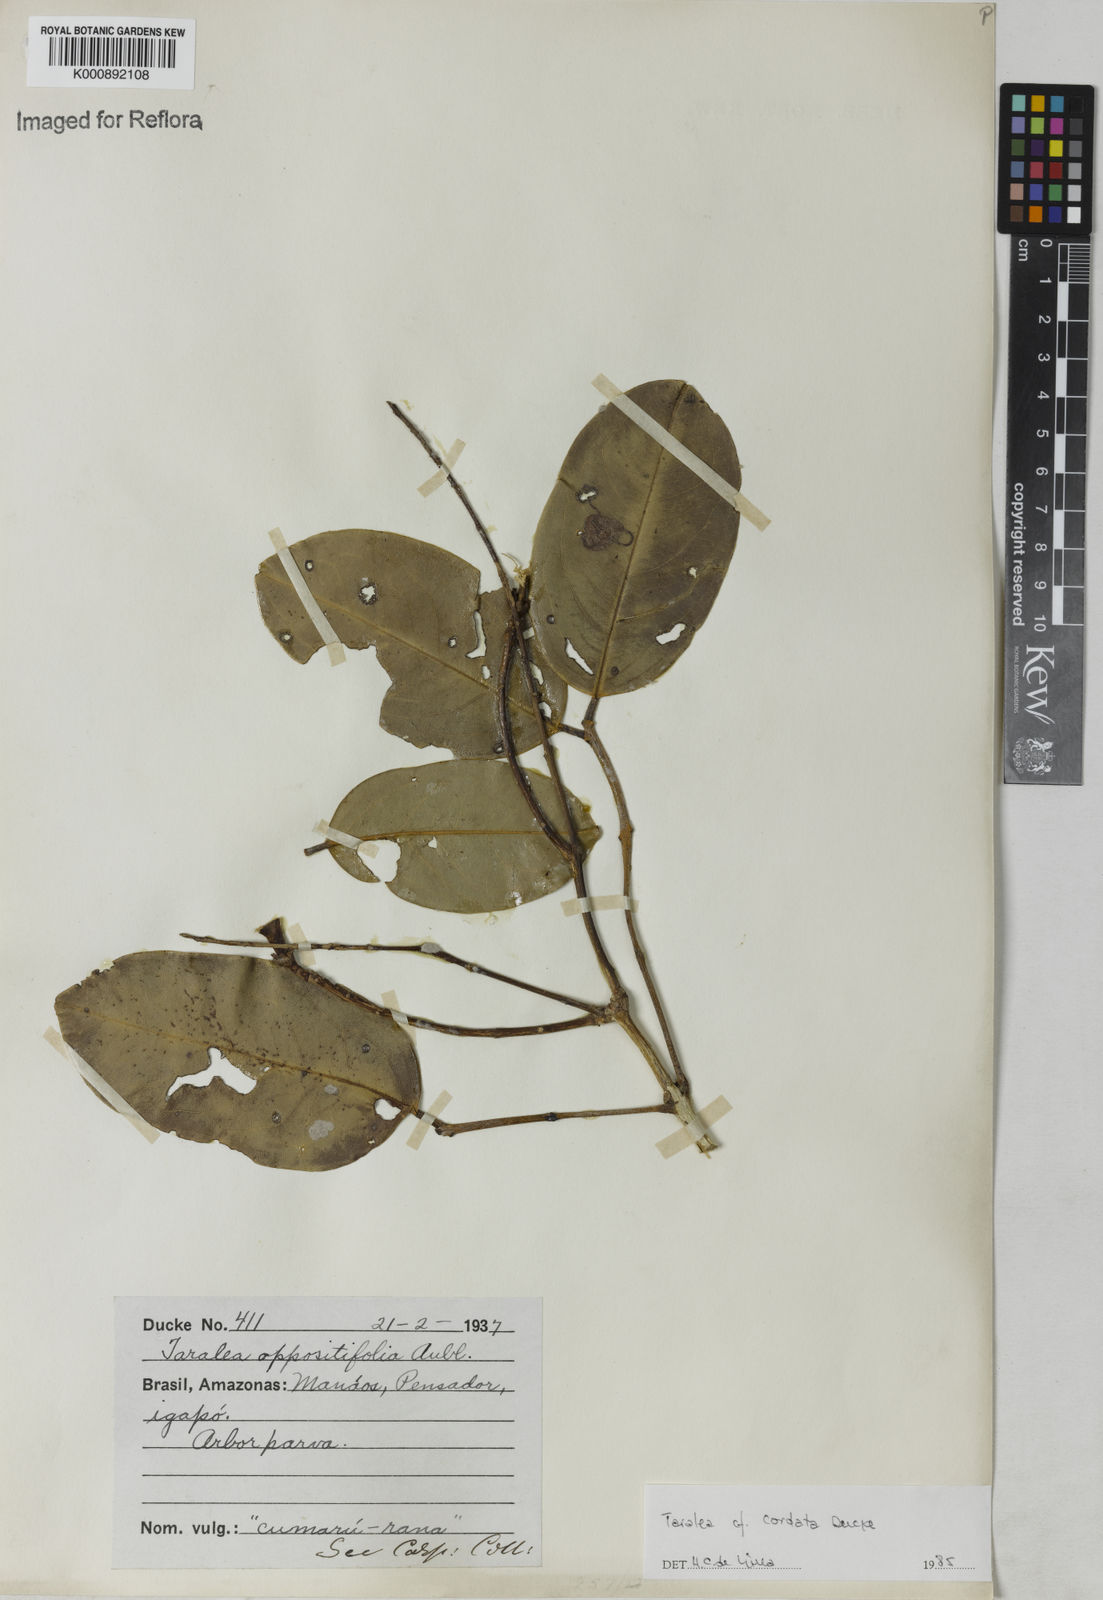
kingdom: Plantae
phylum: Tracheophyta
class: Magnoliopsida
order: Fabales
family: Fabaceae
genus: Taralea
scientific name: Taralea cordata
